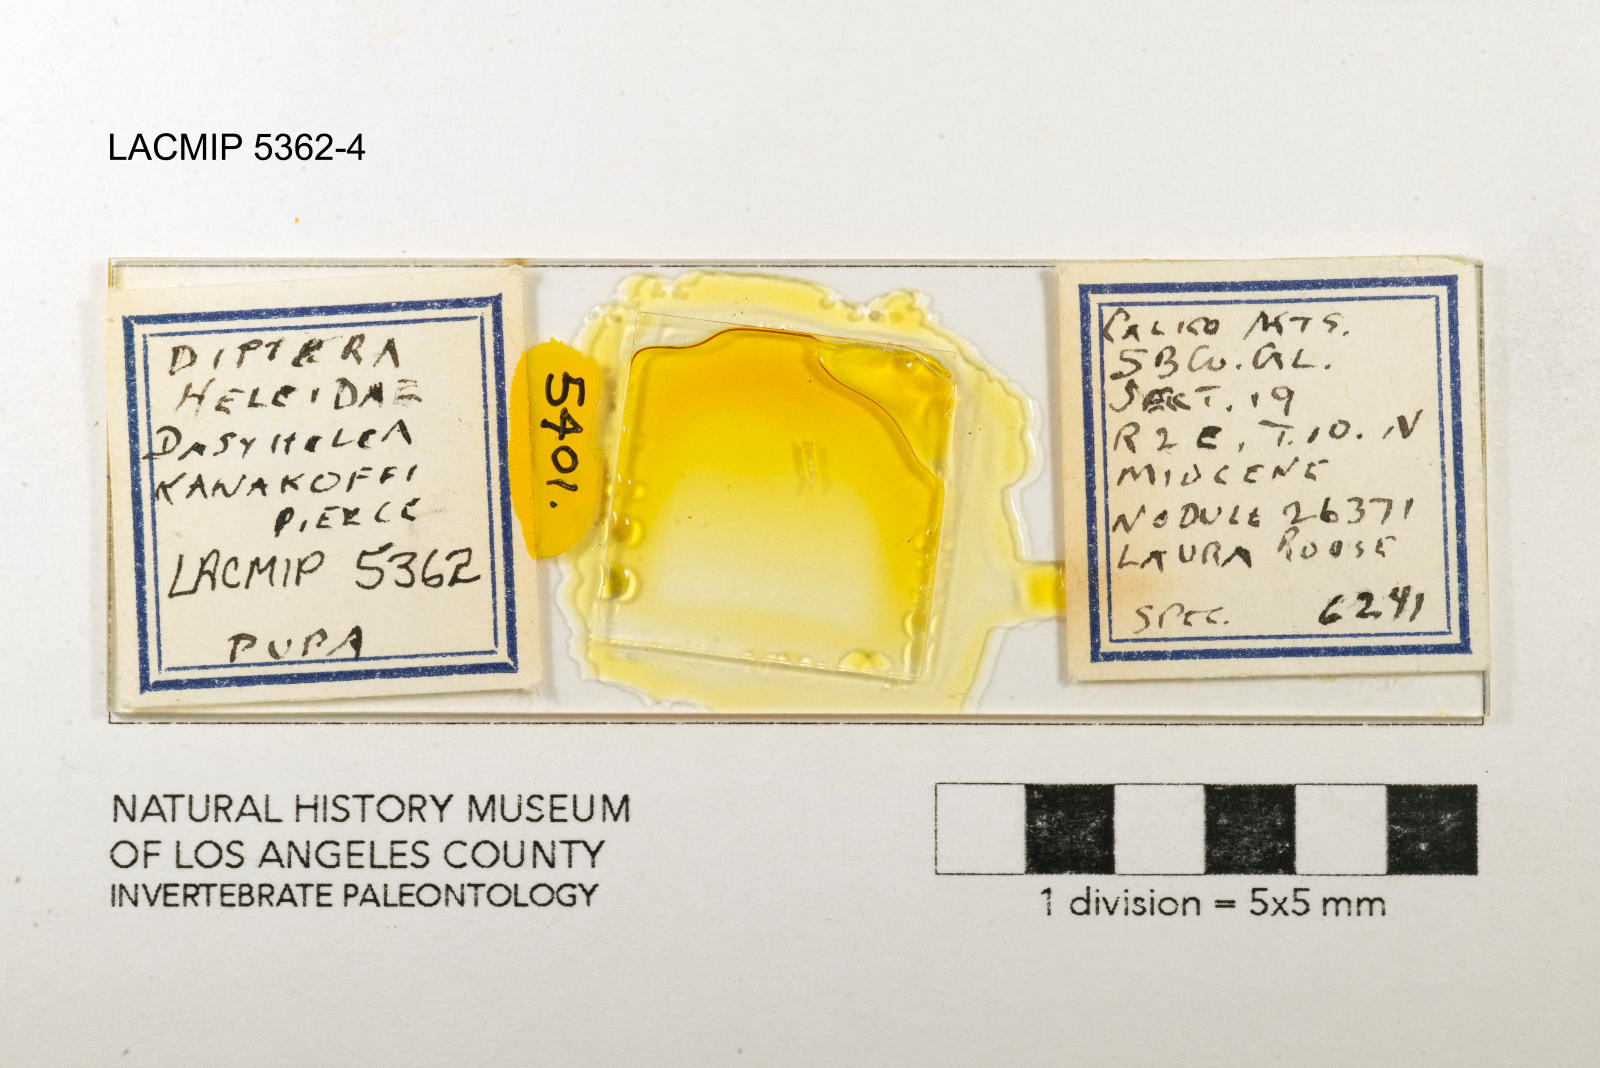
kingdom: Animalia
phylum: Arthropoda
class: Insecta
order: Diptera
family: Ceratopogonidae
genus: Dasyhelea
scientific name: Dasyhelea kanakoffi
